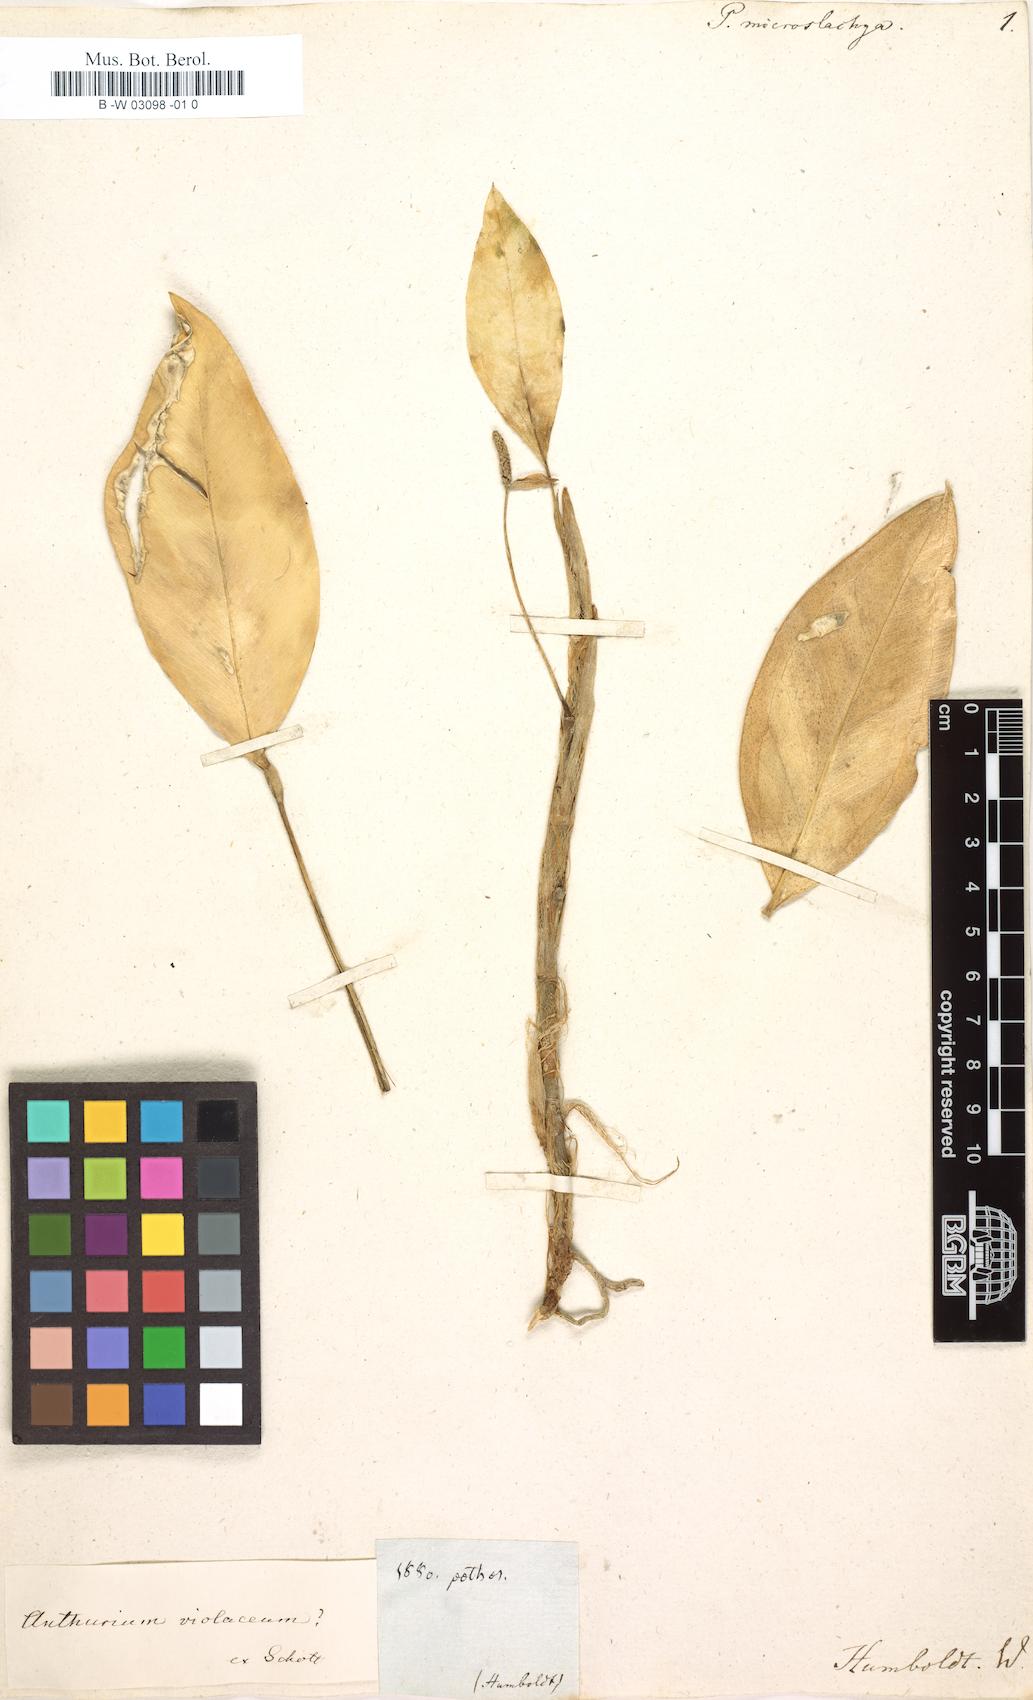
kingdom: Plantae
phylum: Tracheophyta
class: Liliopsida
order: Alismatales
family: Araceae
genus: Anthurium
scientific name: Anthurium myosuroides
